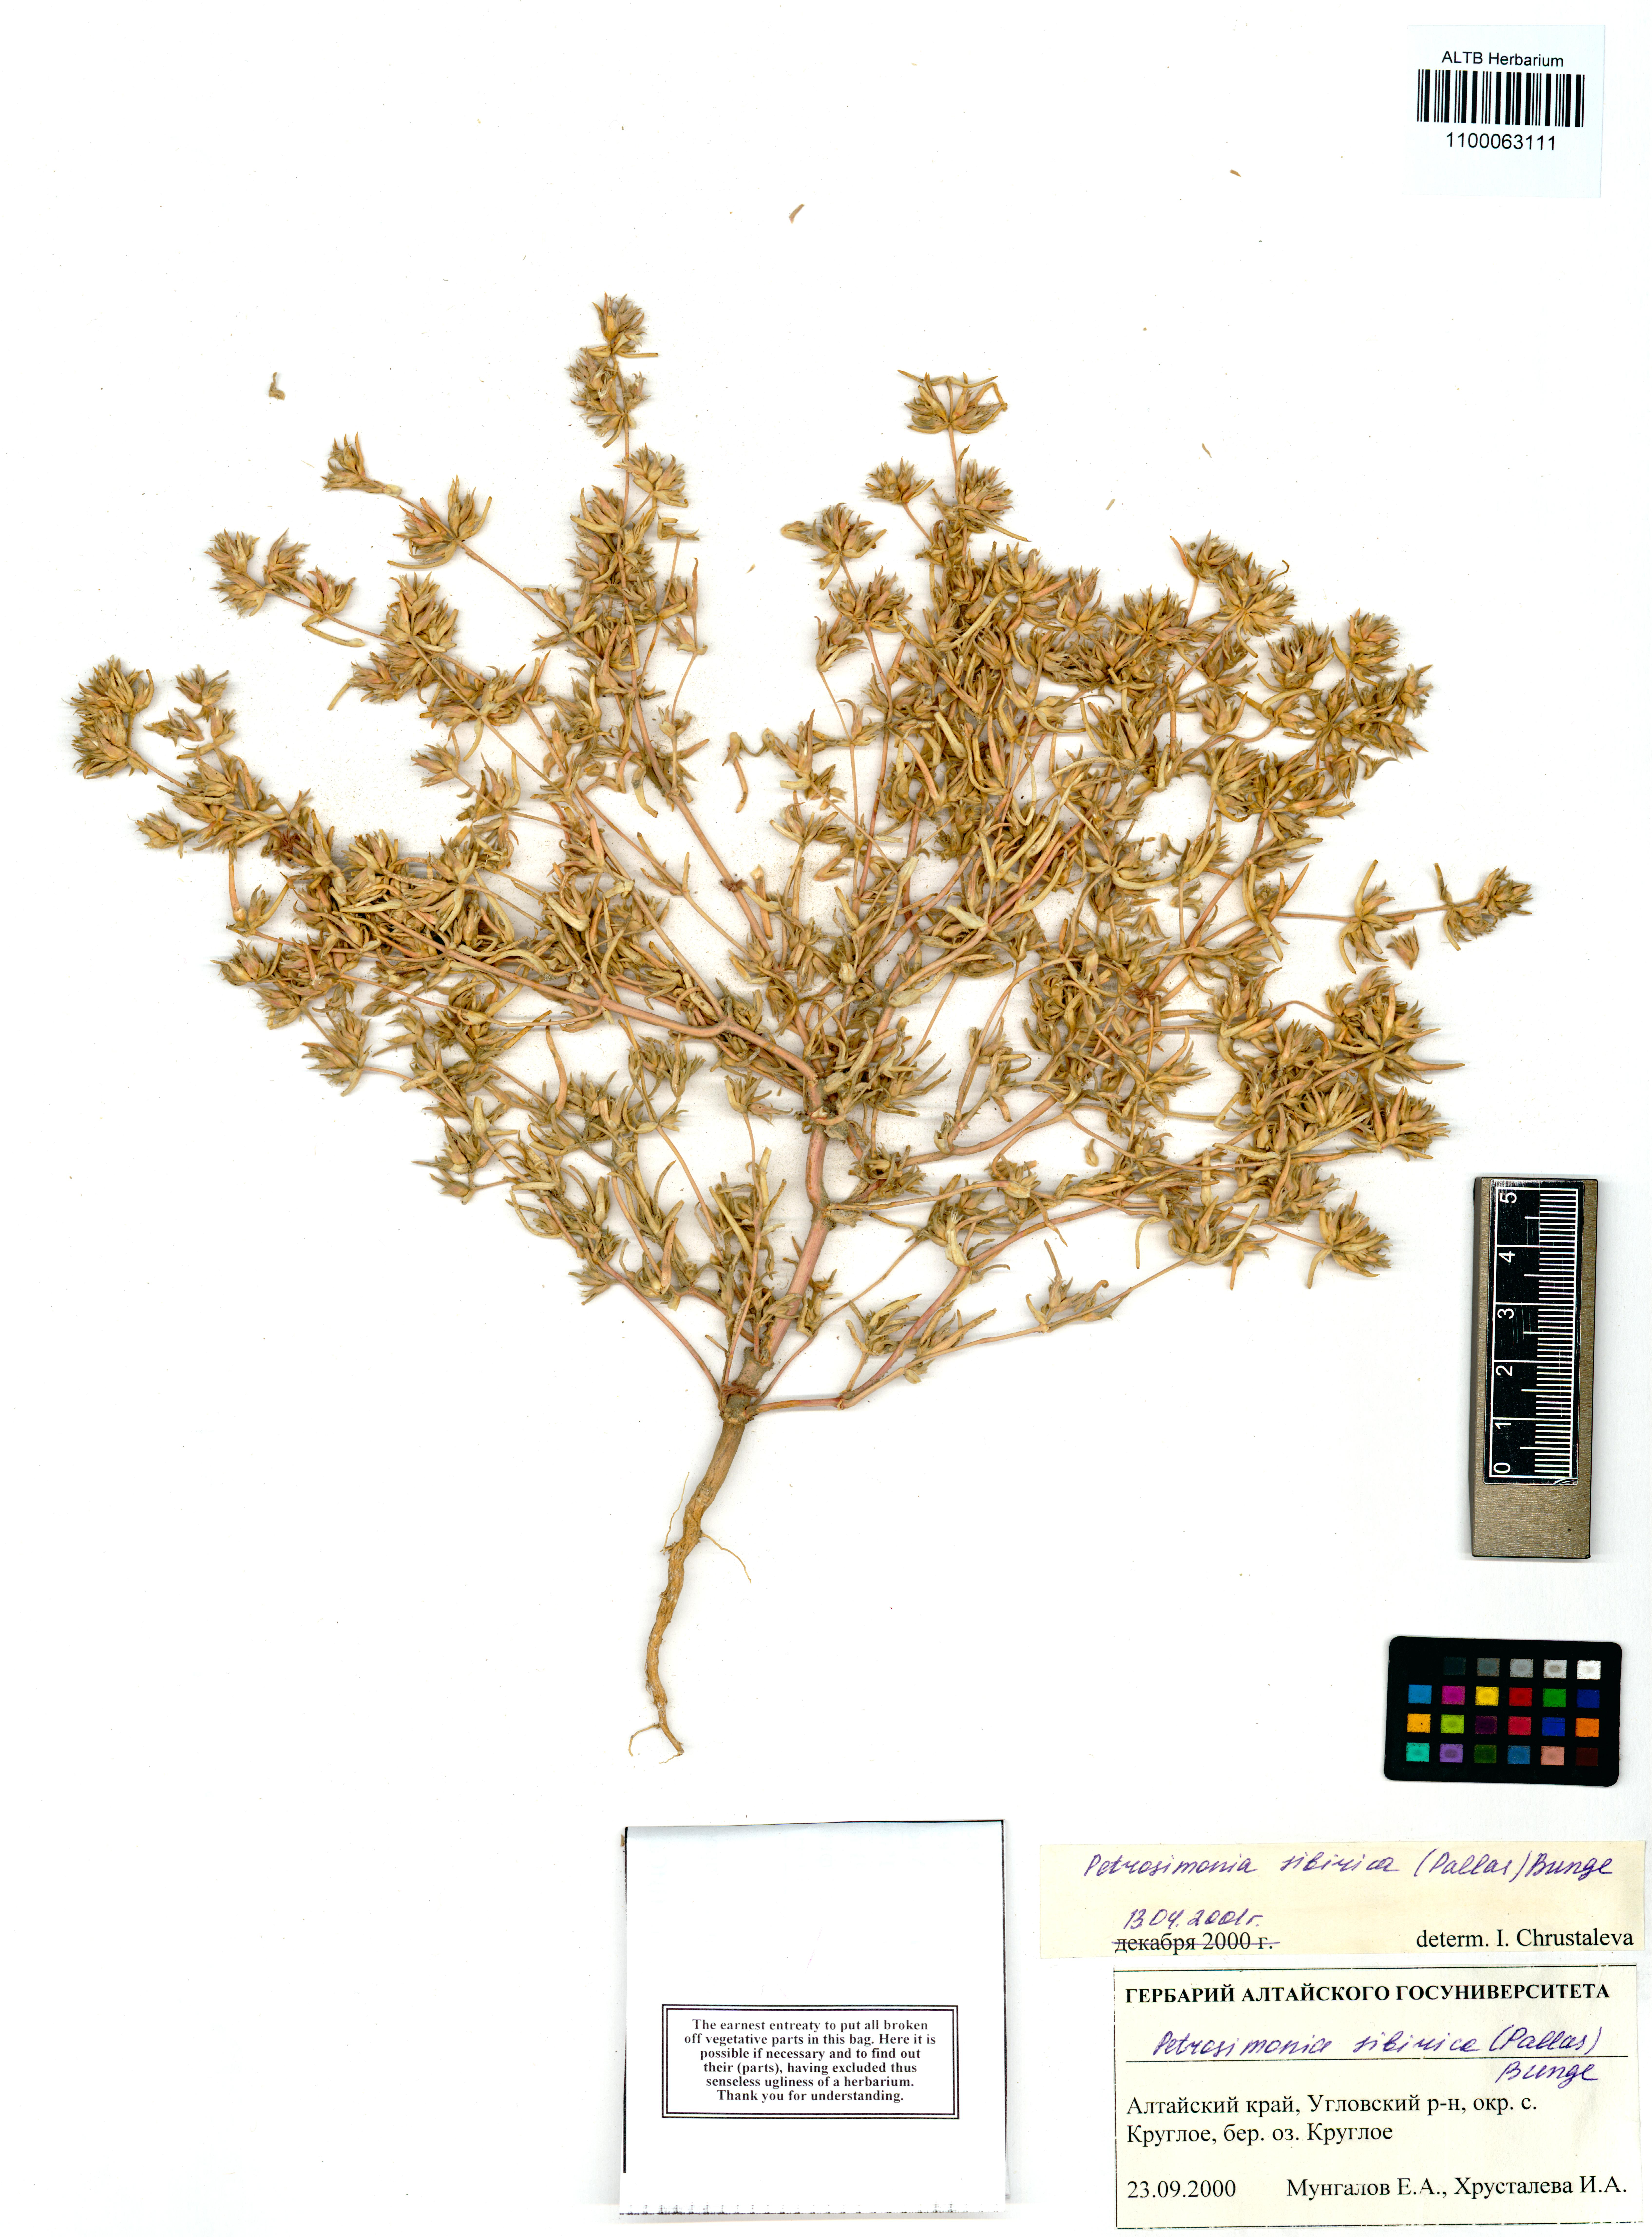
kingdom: Plantae
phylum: Tracheophyta
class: Magnoliopsida
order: Caryophyllales
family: Amaranthaceae
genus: Petrosimonia
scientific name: Petrosimonia sibirica
